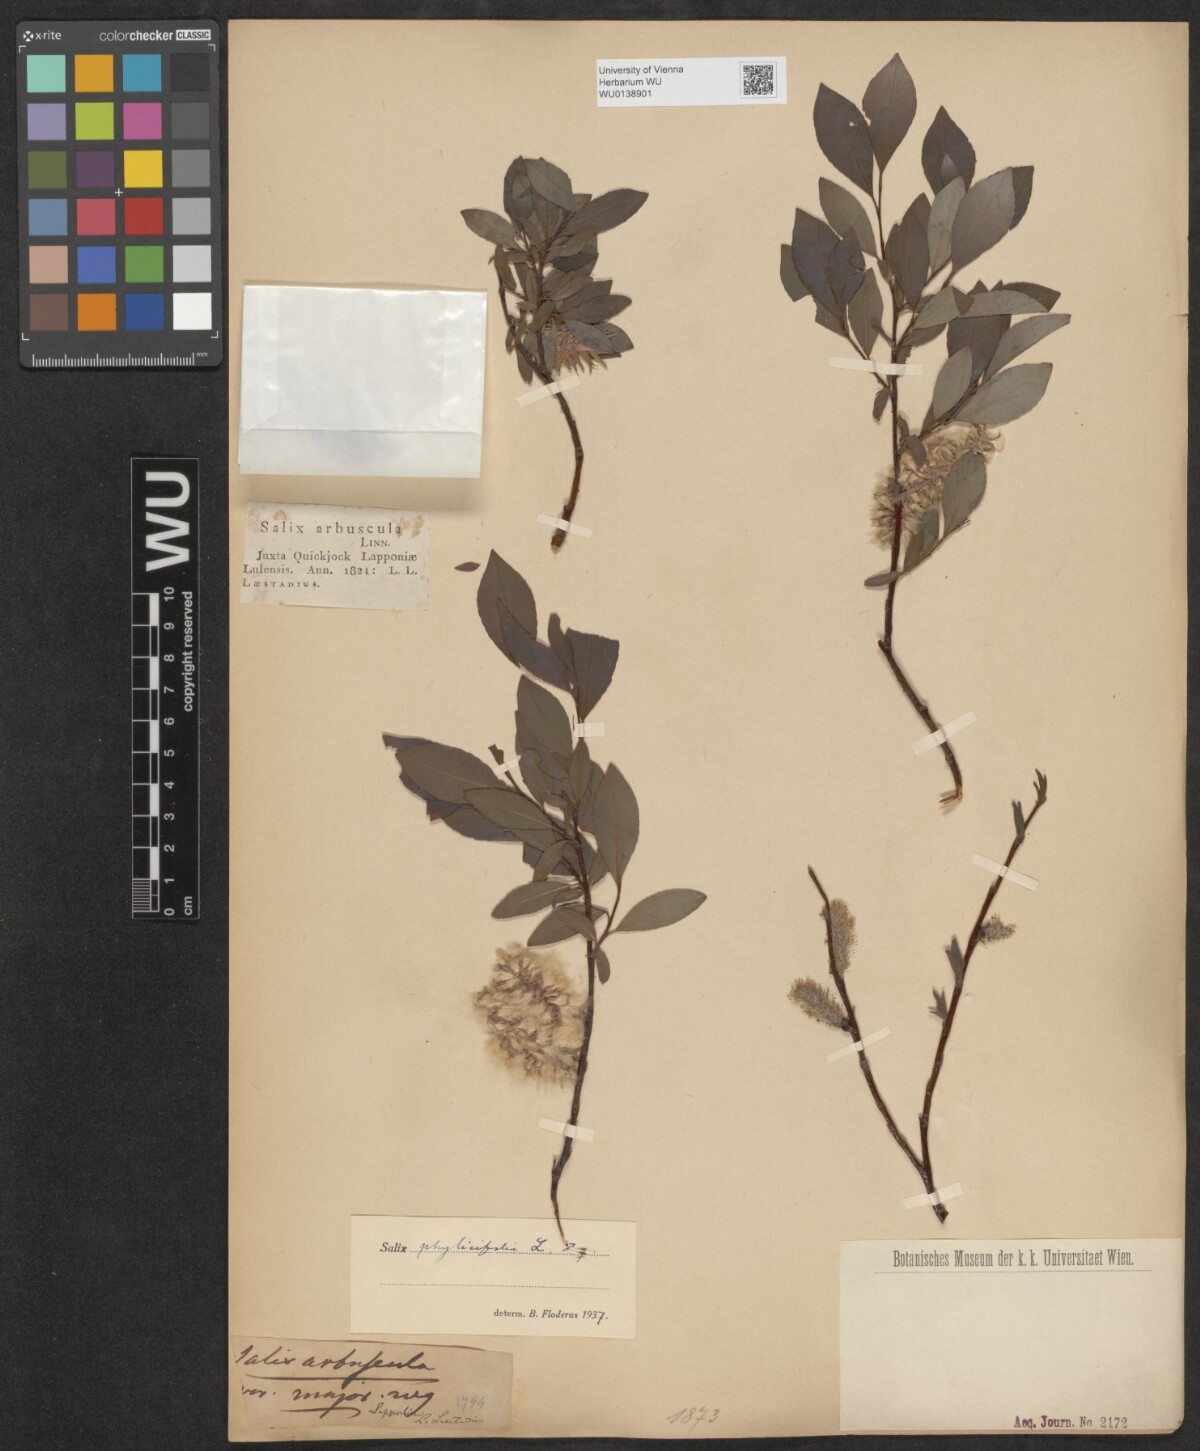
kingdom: Plantae
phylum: Tracheophyta
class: Magnoliopsida
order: Malpighiales
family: Salicaceae
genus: Salix
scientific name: Salix phylicifolia
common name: Tea-leaved willow
